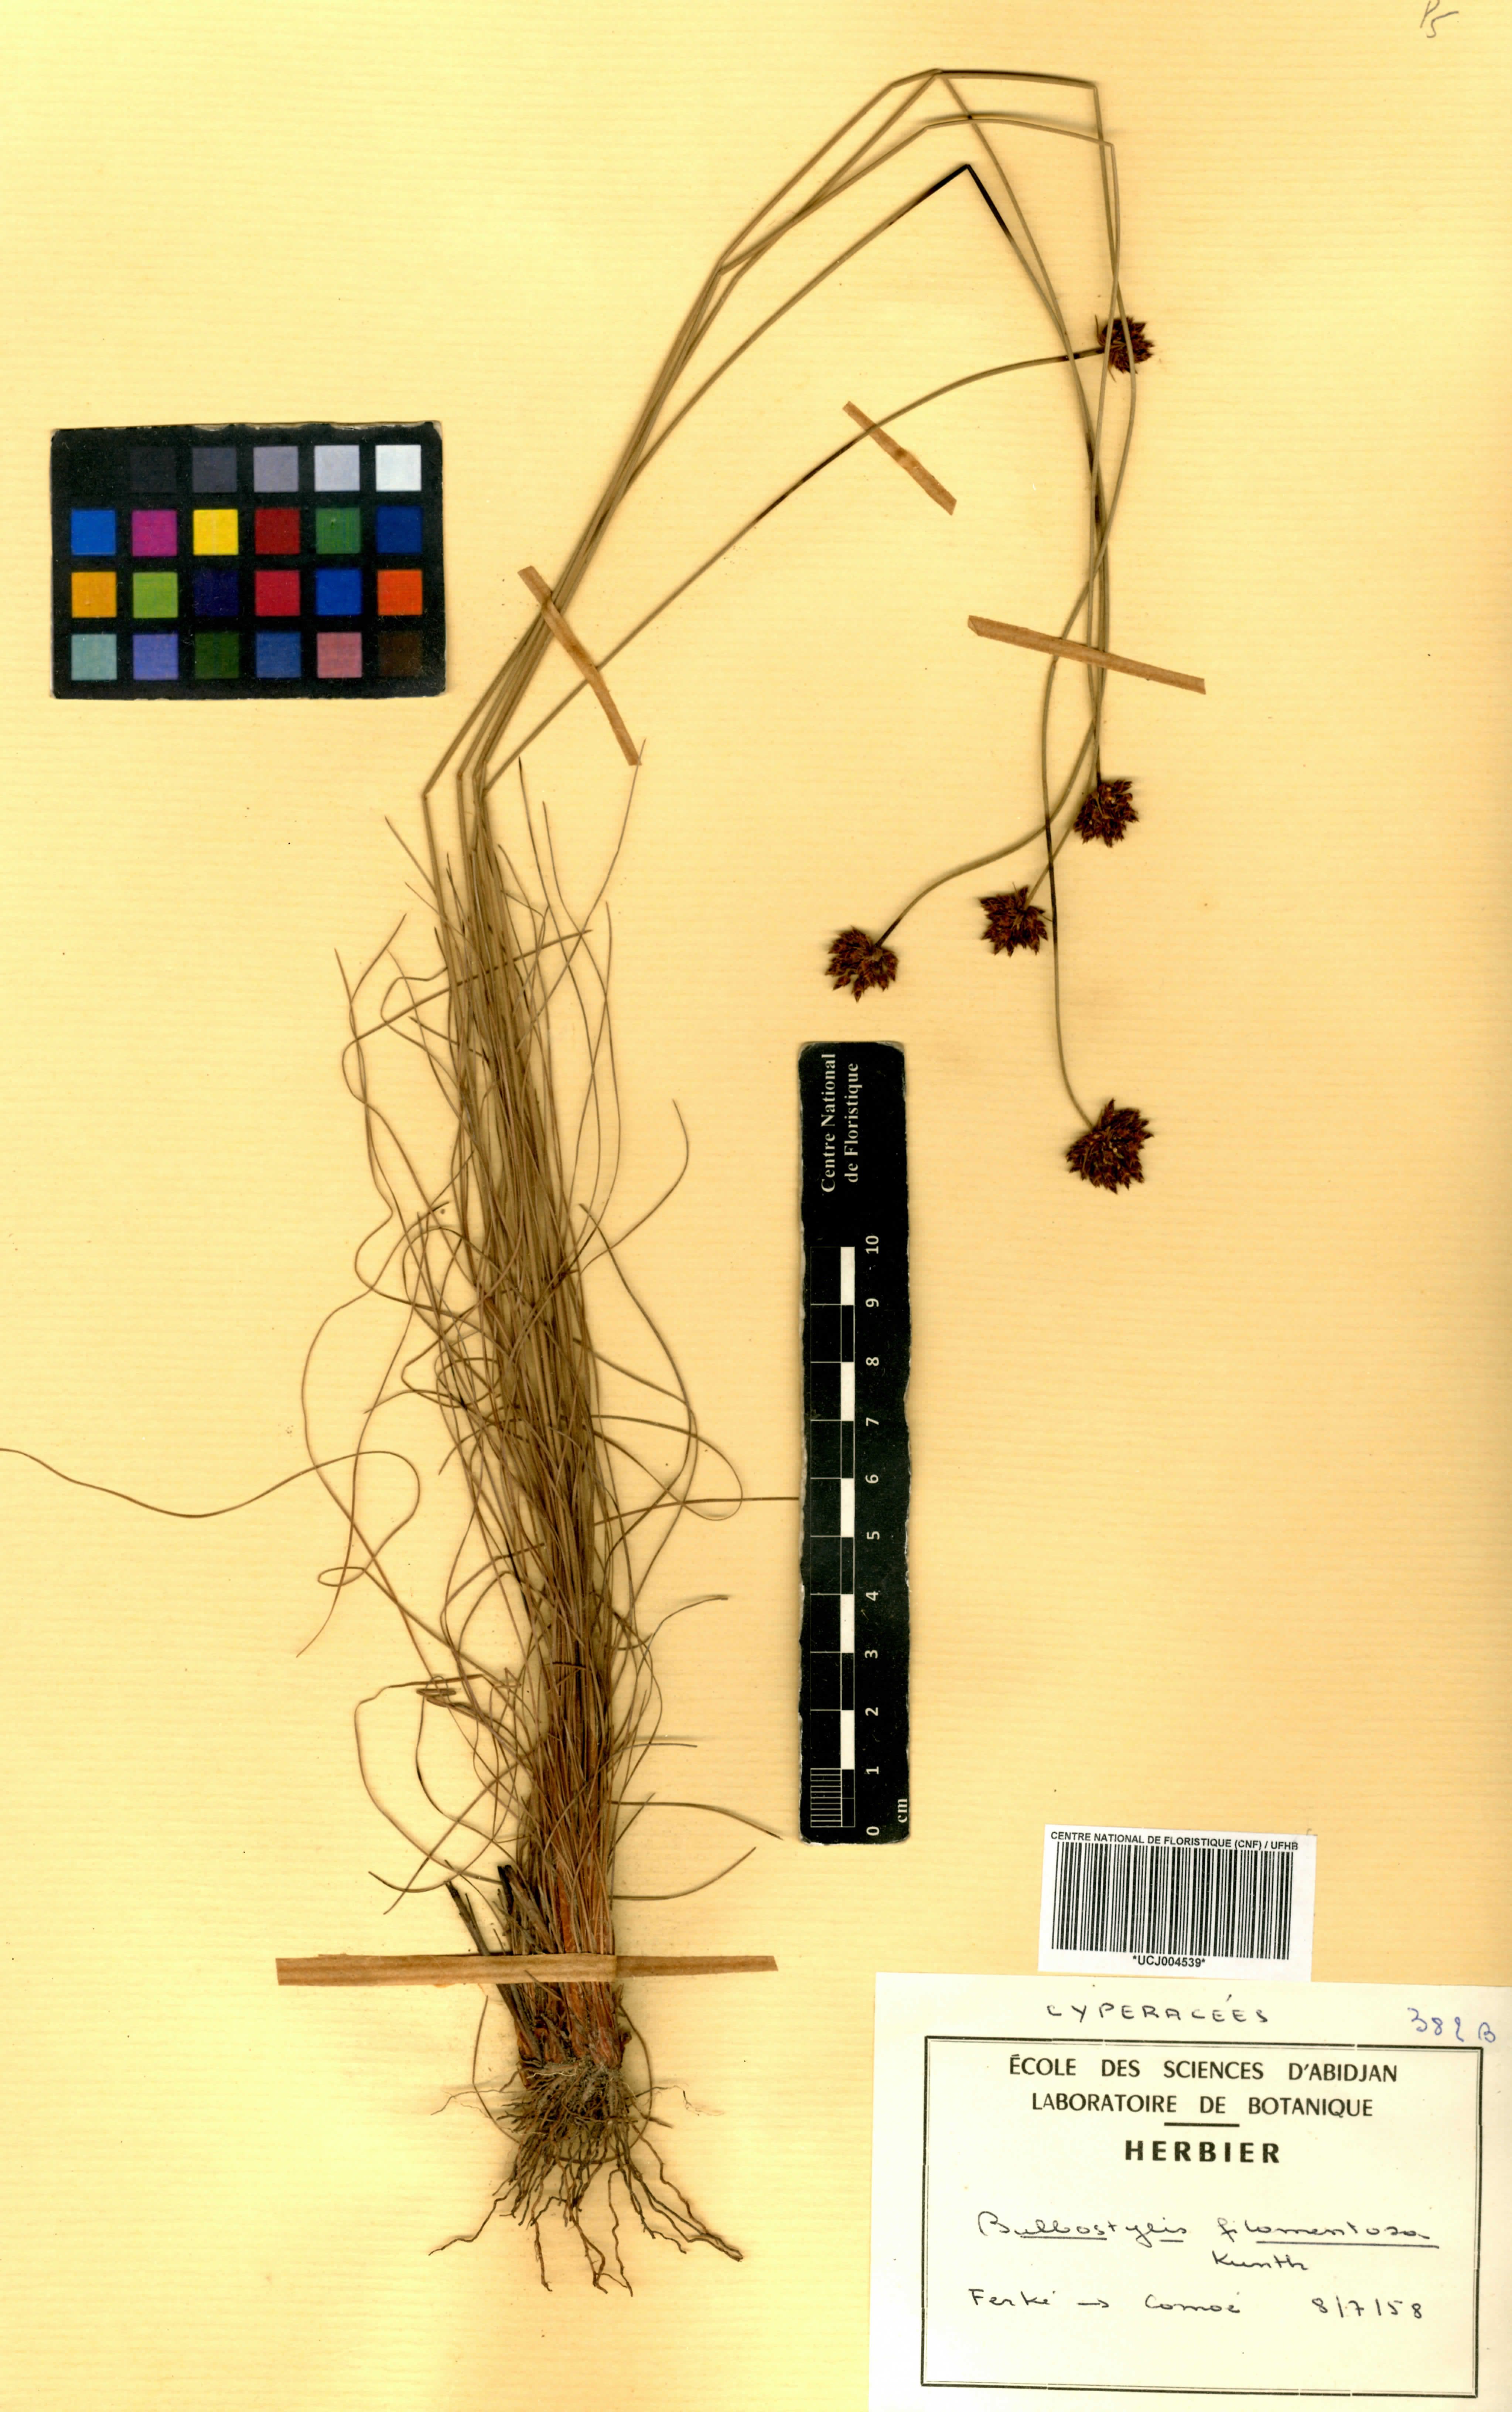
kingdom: Plantae
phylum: Tracheophyta
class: Liliopsida
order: Poales
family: Cyperaceae
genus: Bulbostylis
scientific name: Bulbostylis filamentosa
